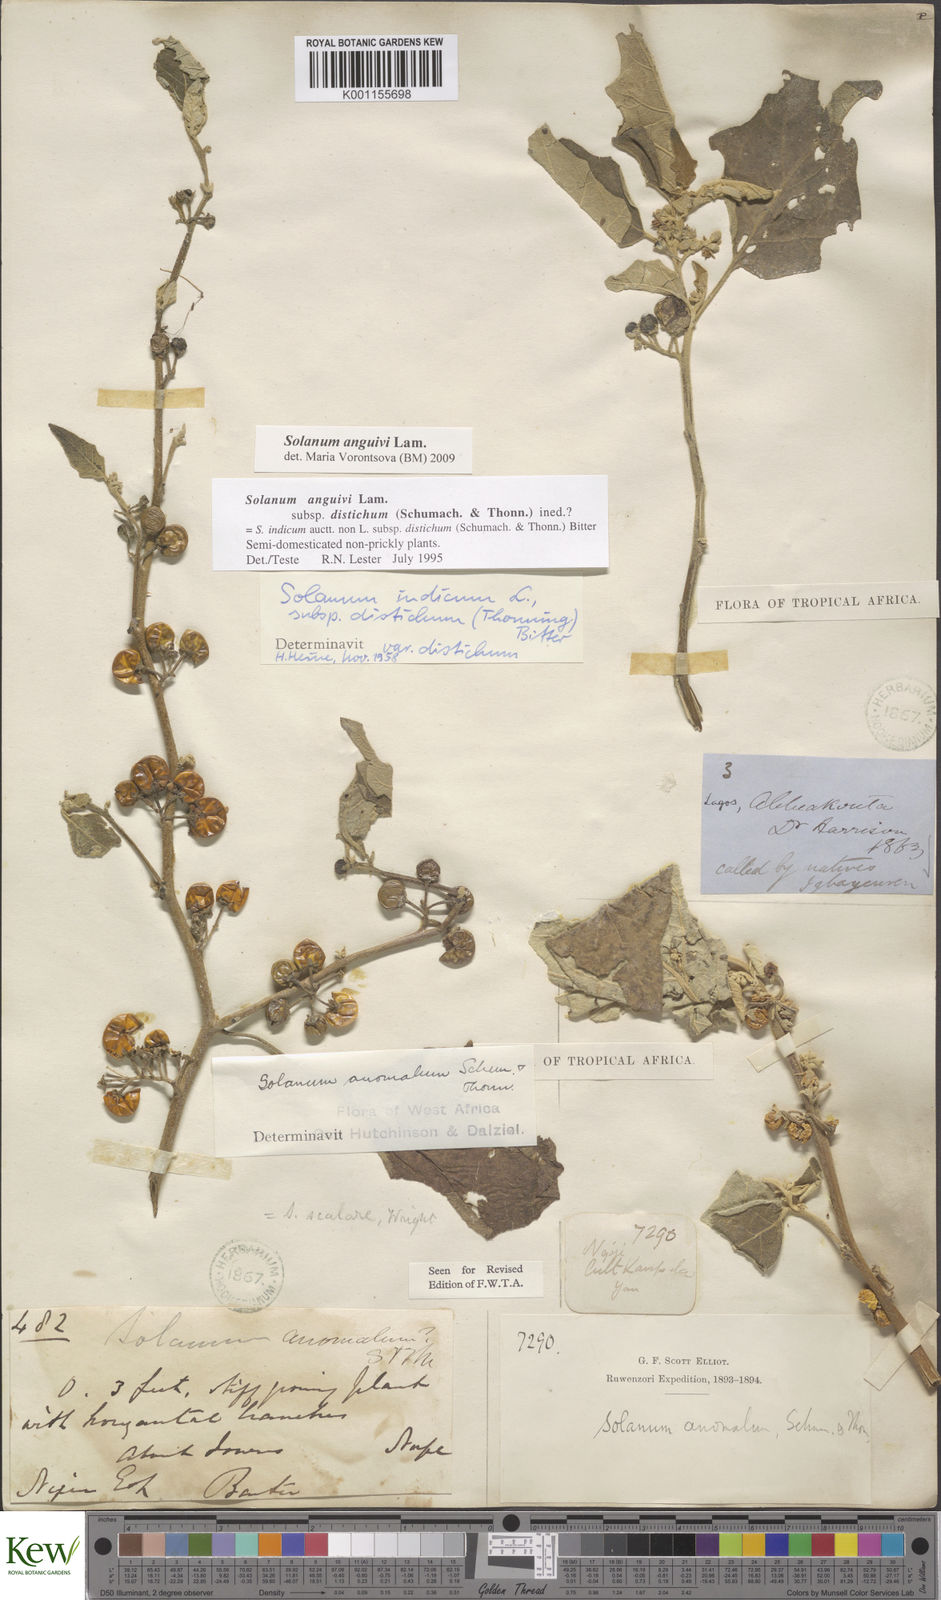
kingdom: Plantae
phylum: Tracheophyta
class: Magnoliopsida
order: Solanales
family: Solanaceae
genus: Solanum
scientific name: Solanum anguivi
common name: Forest bitterberry
